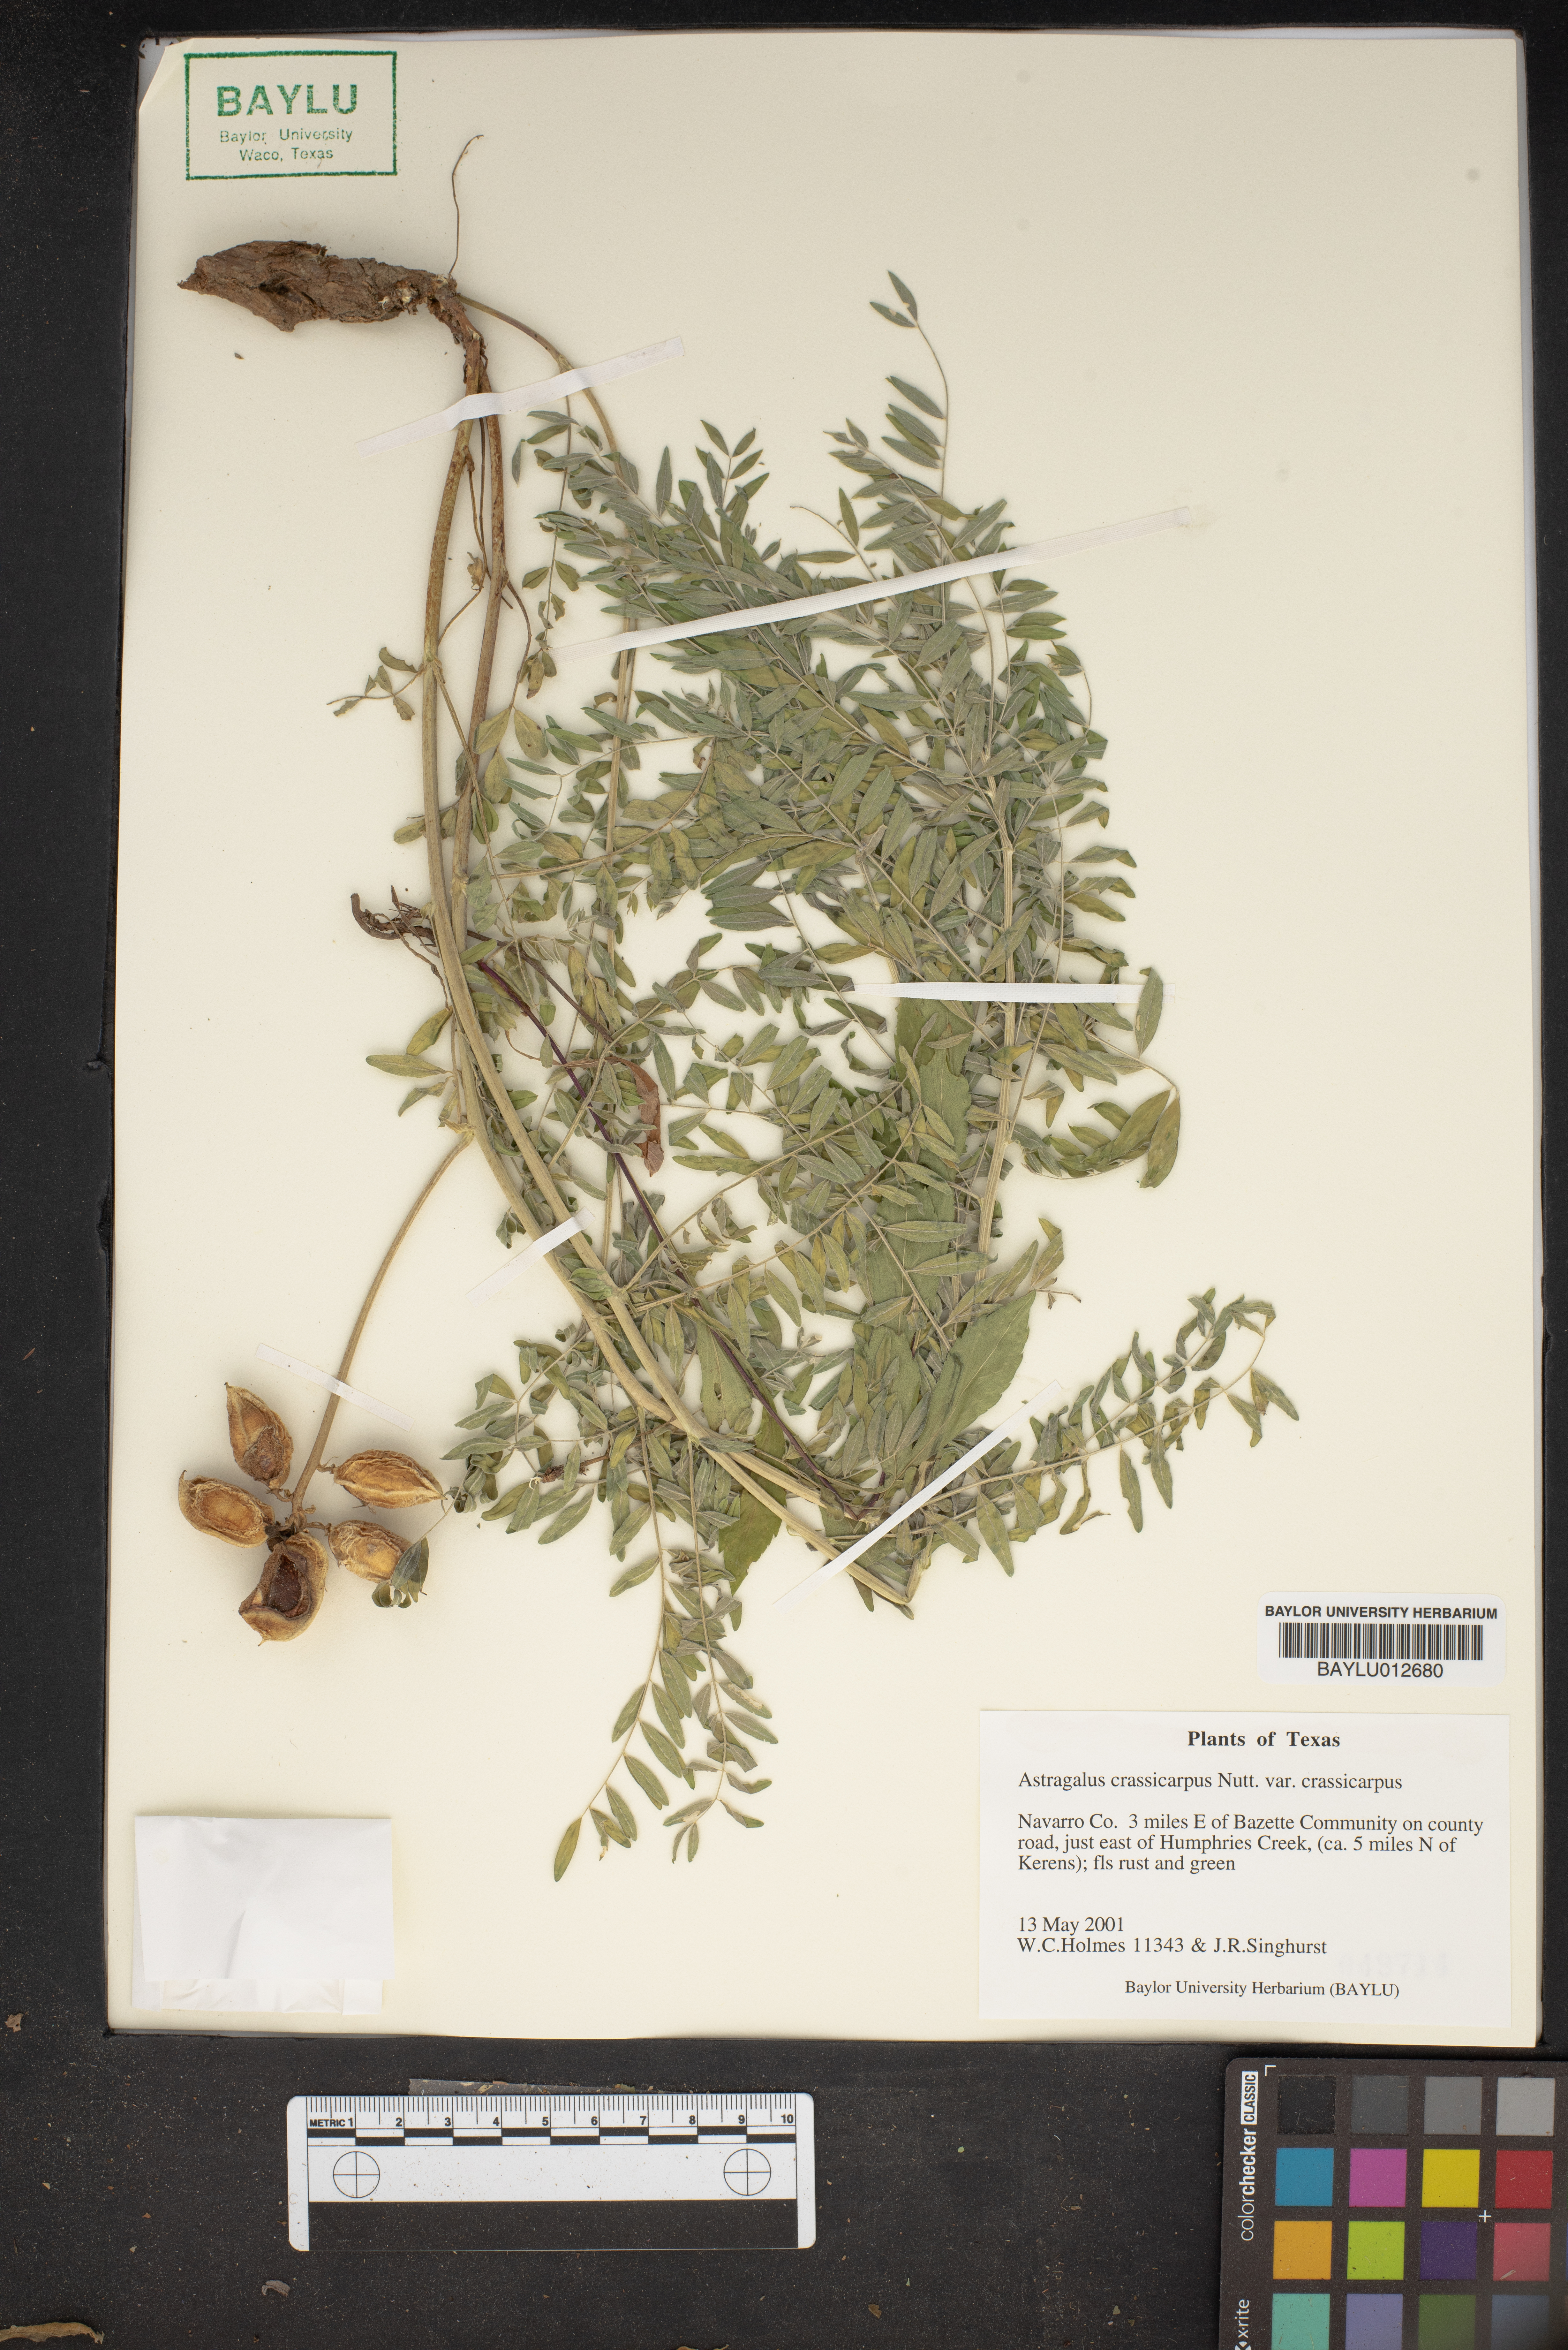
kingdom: Plantae
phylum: Tracheophyta
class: Magnoliopsida
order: Fabales
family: Fabaceae
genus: Astragalus
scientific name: Astragalus crassicarpus
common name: Ground-plum milk-vetch
